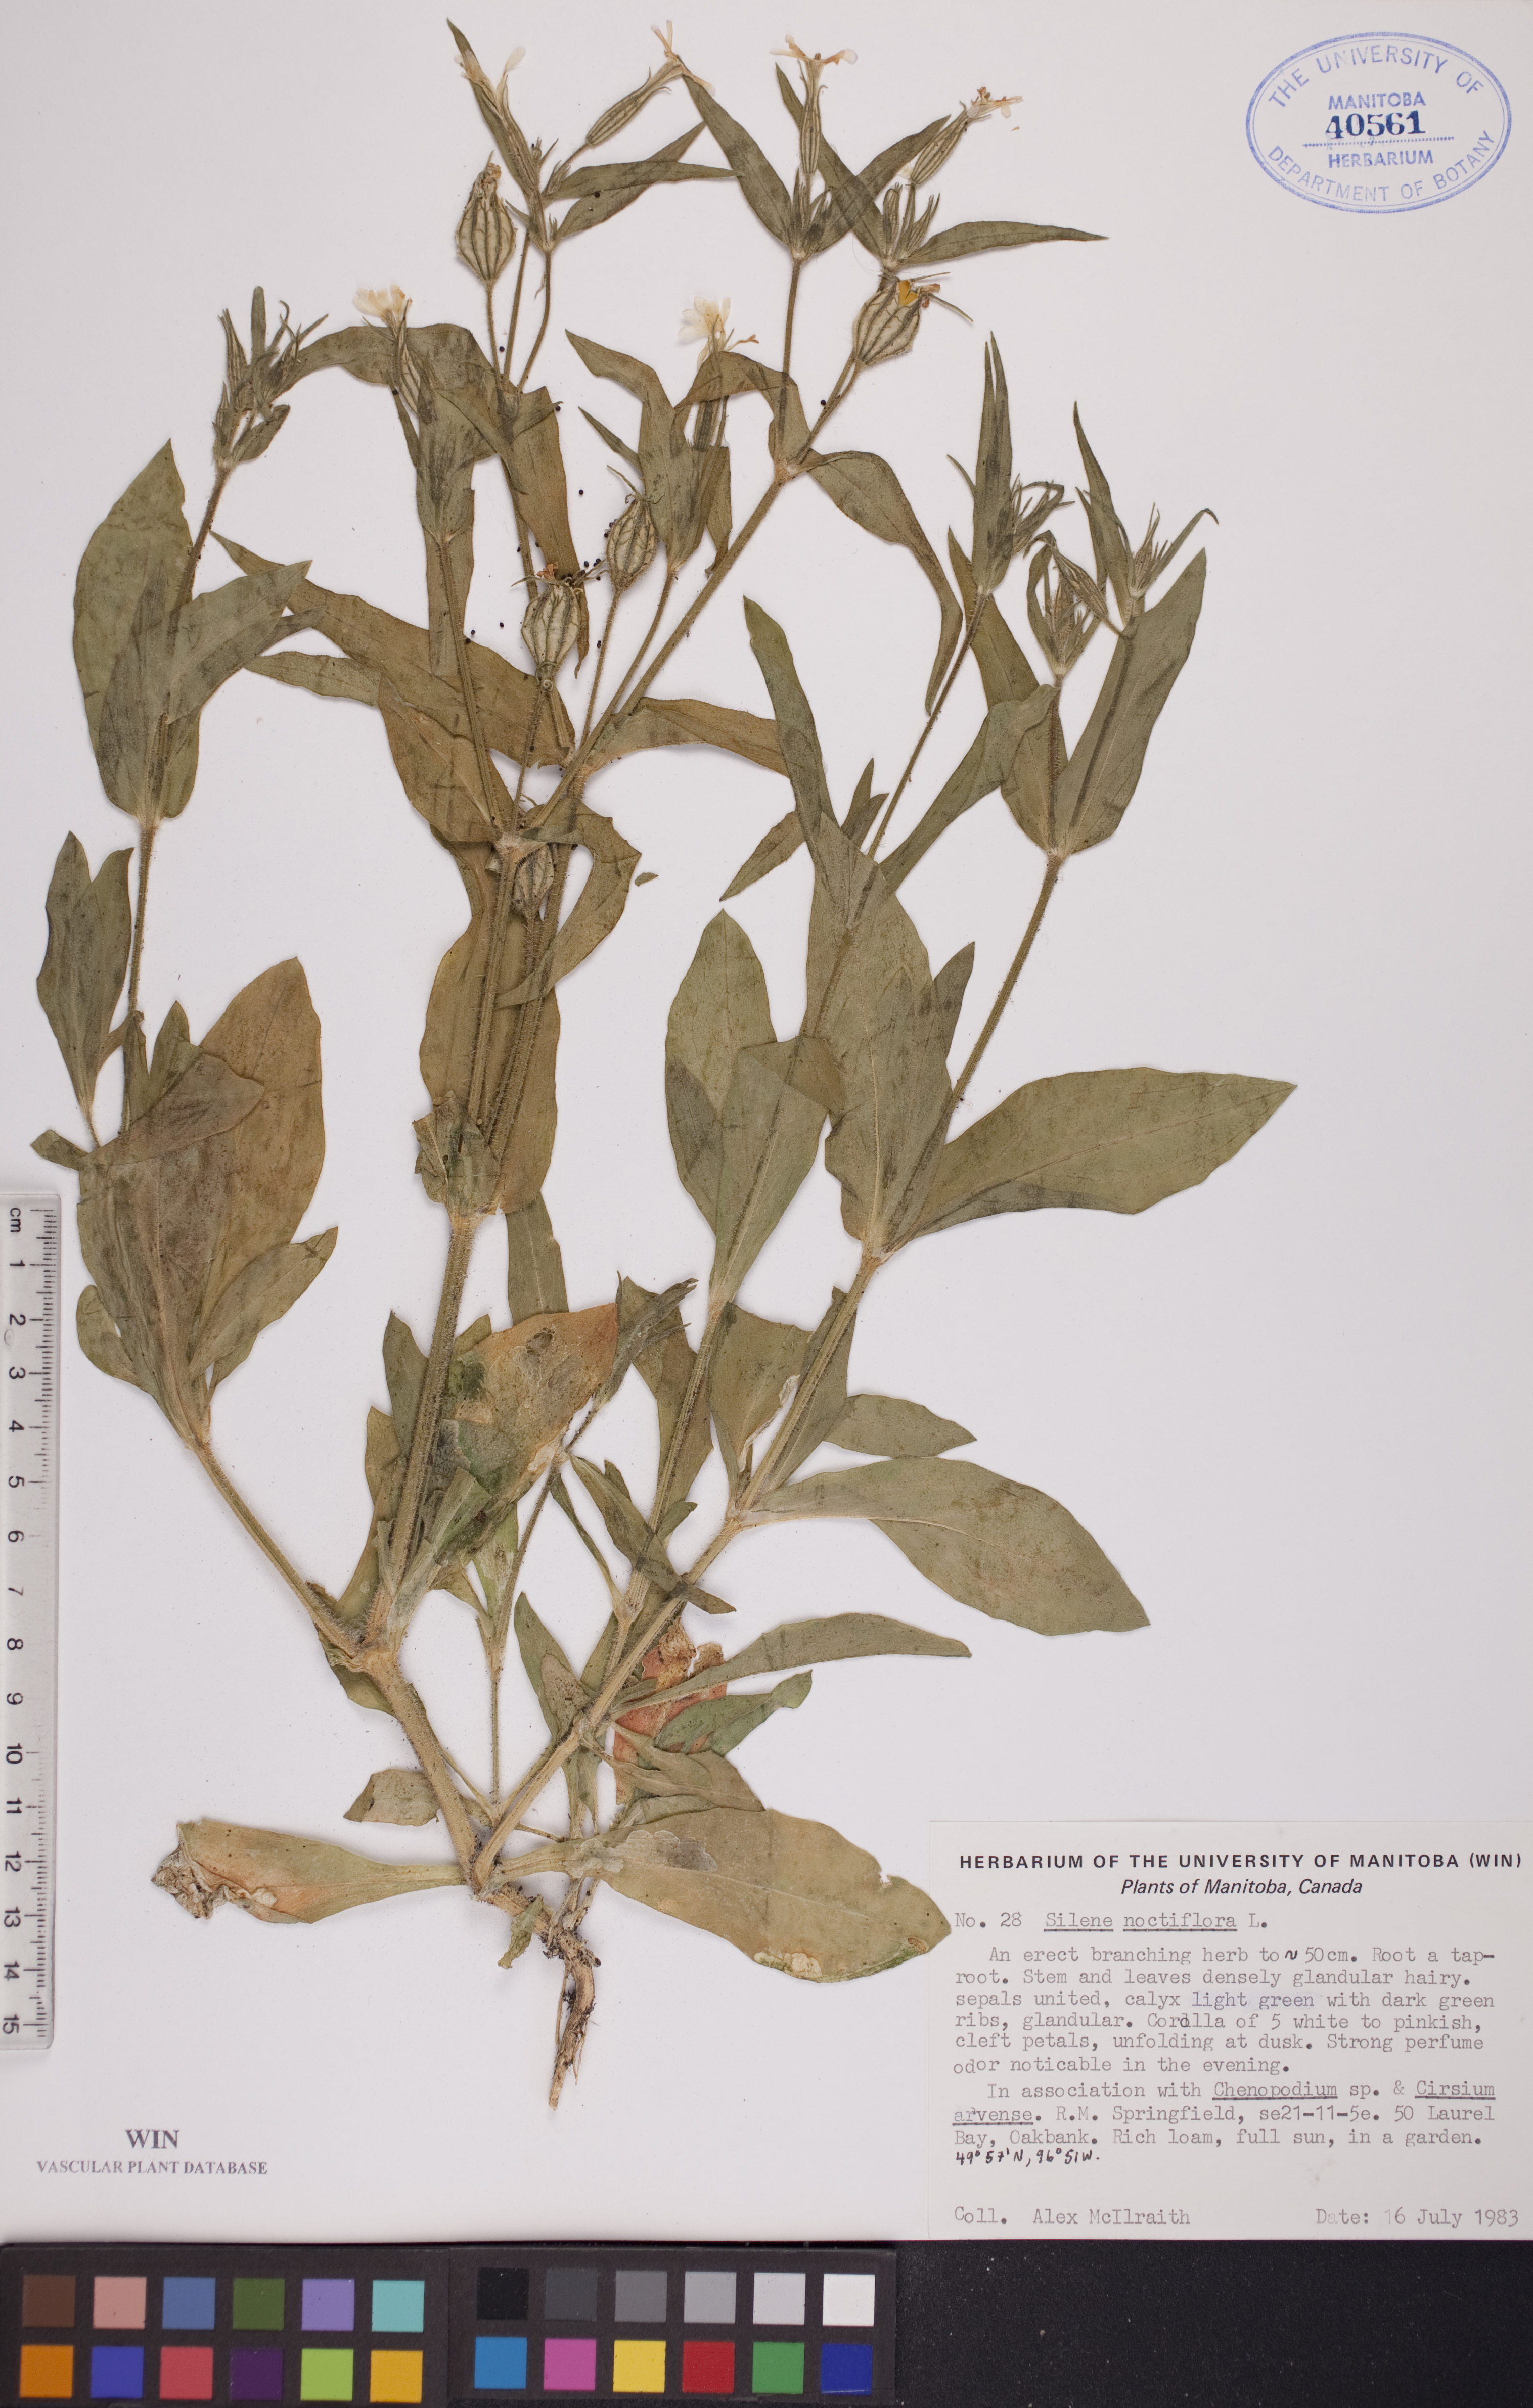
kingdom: Plantae
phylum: Tracheophyta
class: Magnoliopsida
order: Caryophyllales
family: Caryophyllaceae
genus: Silene
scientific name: Silene noctiflora
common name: Night-flowering catchfly
